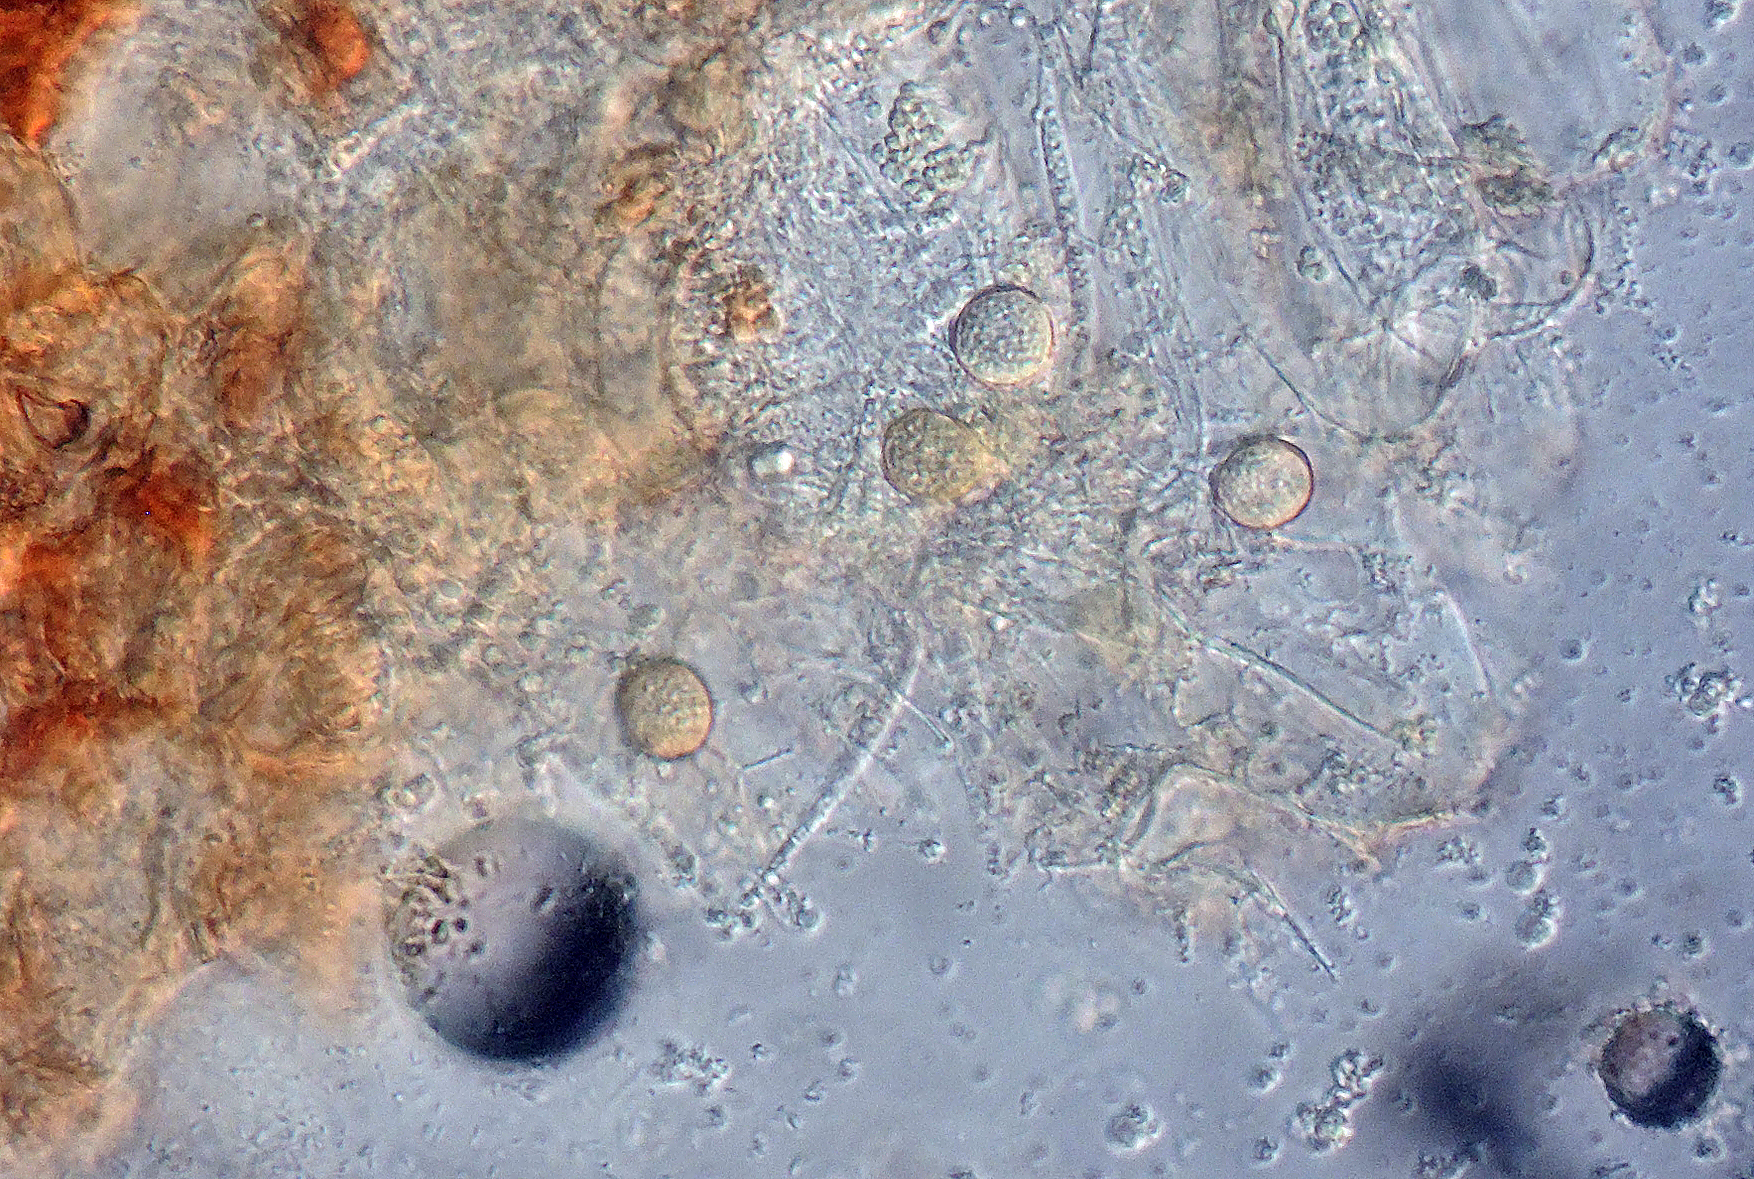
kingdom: Fungi
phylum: Basidiomycota
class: Exobasidiomycetes
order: Entylomatales
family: Entylomataceae
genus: Entyloma
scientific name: Entyloma ranunculi-scelerati
